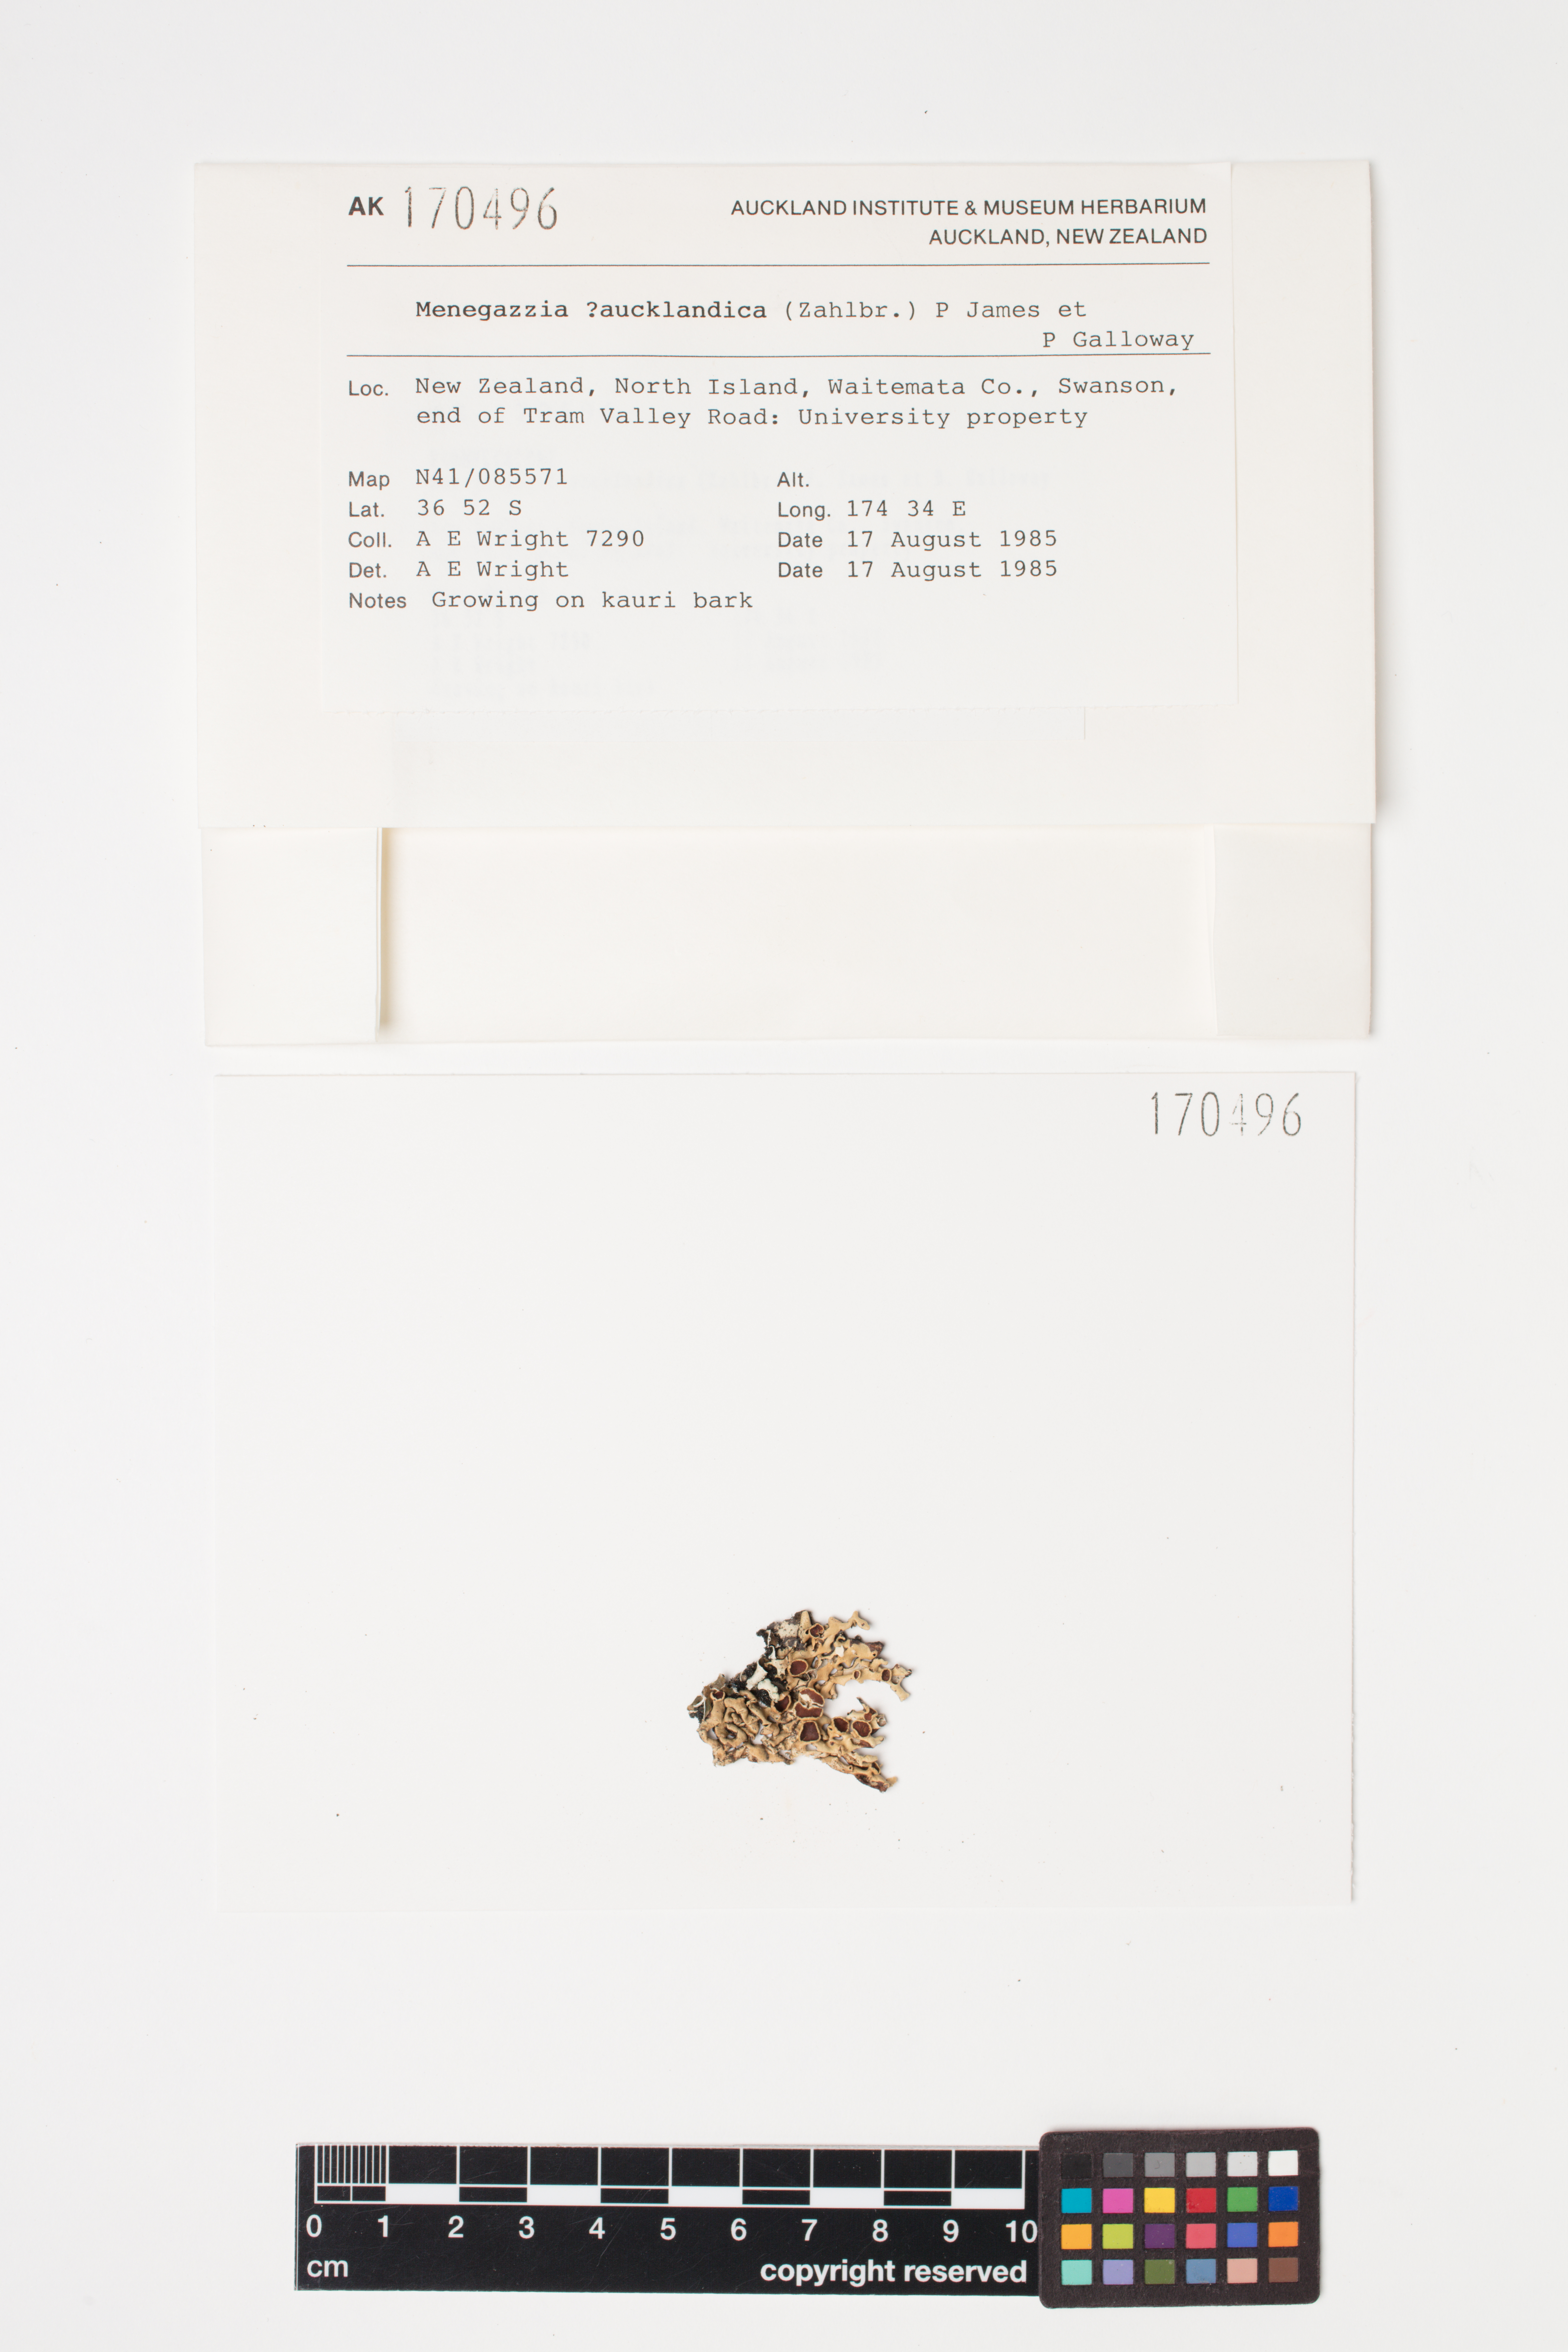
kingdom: Fungi
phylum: Ascomycota
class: Lecanoromycetes
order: Lecanorales
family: Parmeliaceae
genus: Menegazzia
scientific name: Menegazzia aucklandica
